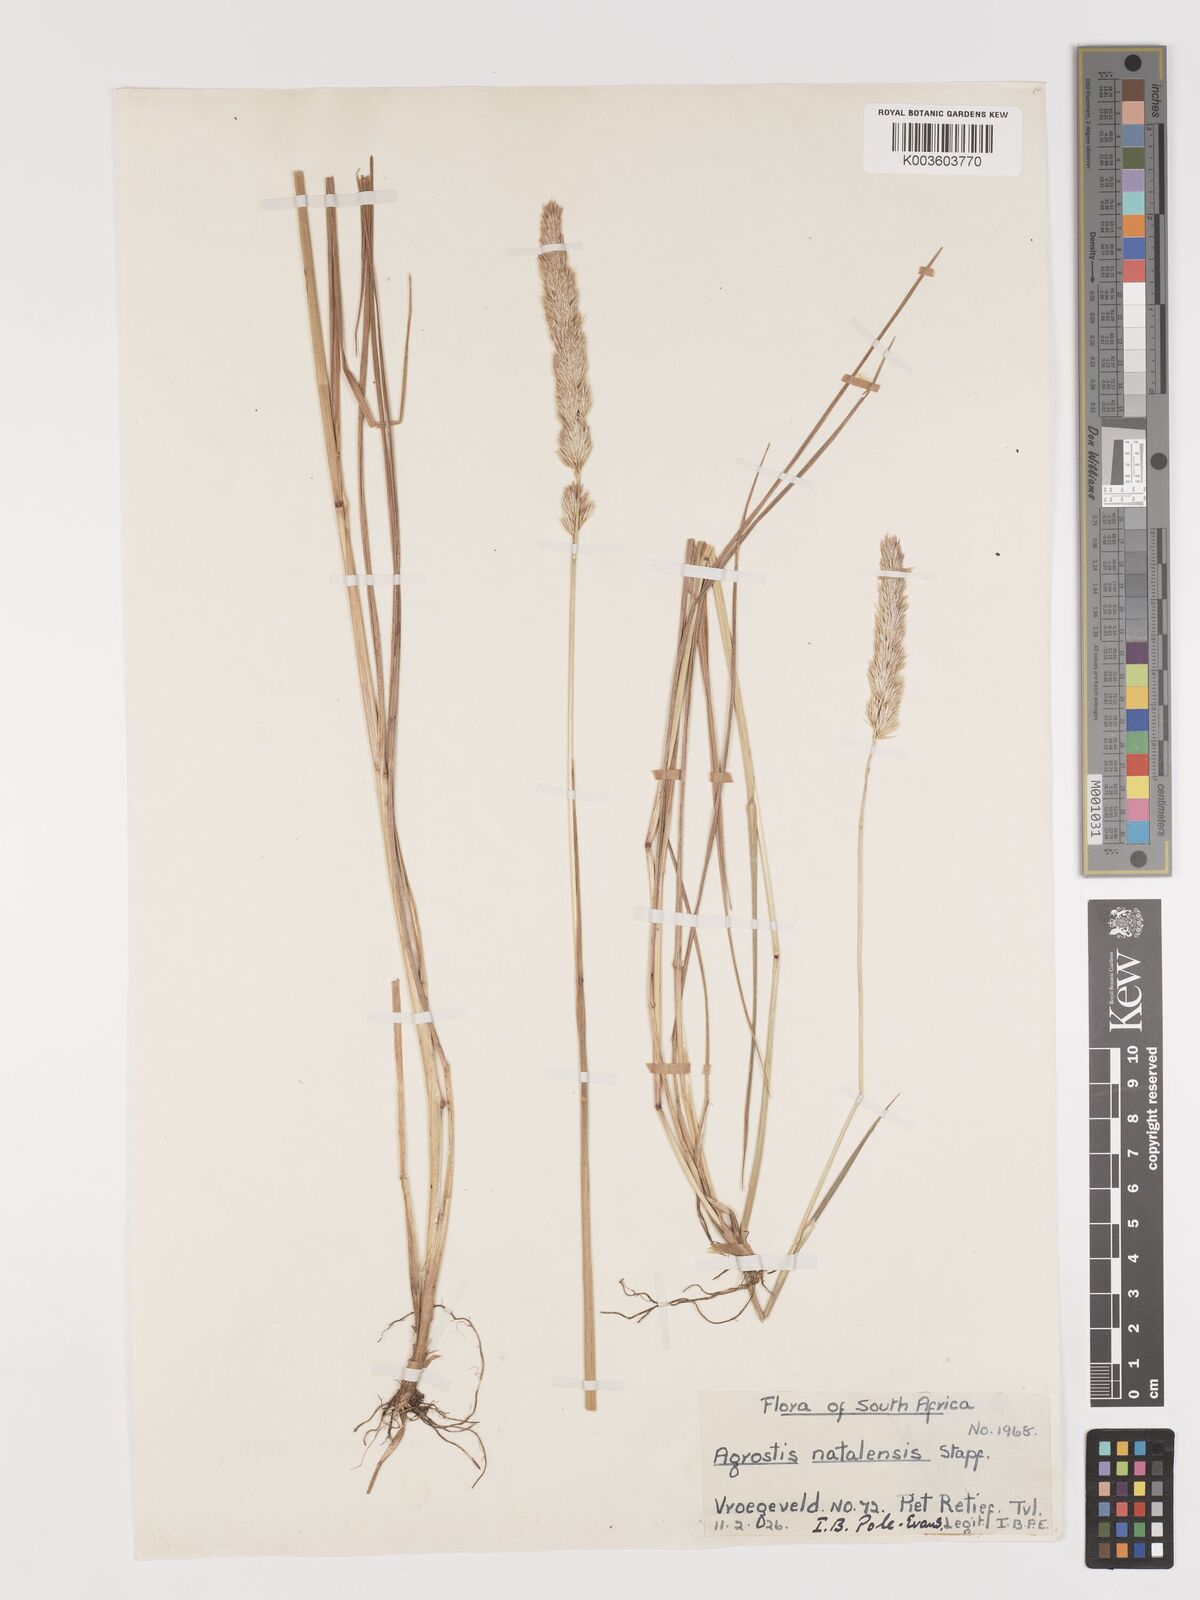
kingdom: Plantae
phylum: Tracheophyta
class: Liliopsida
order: Poales
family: Poaceae
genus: Agrostis
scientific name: Agrostis continuata
